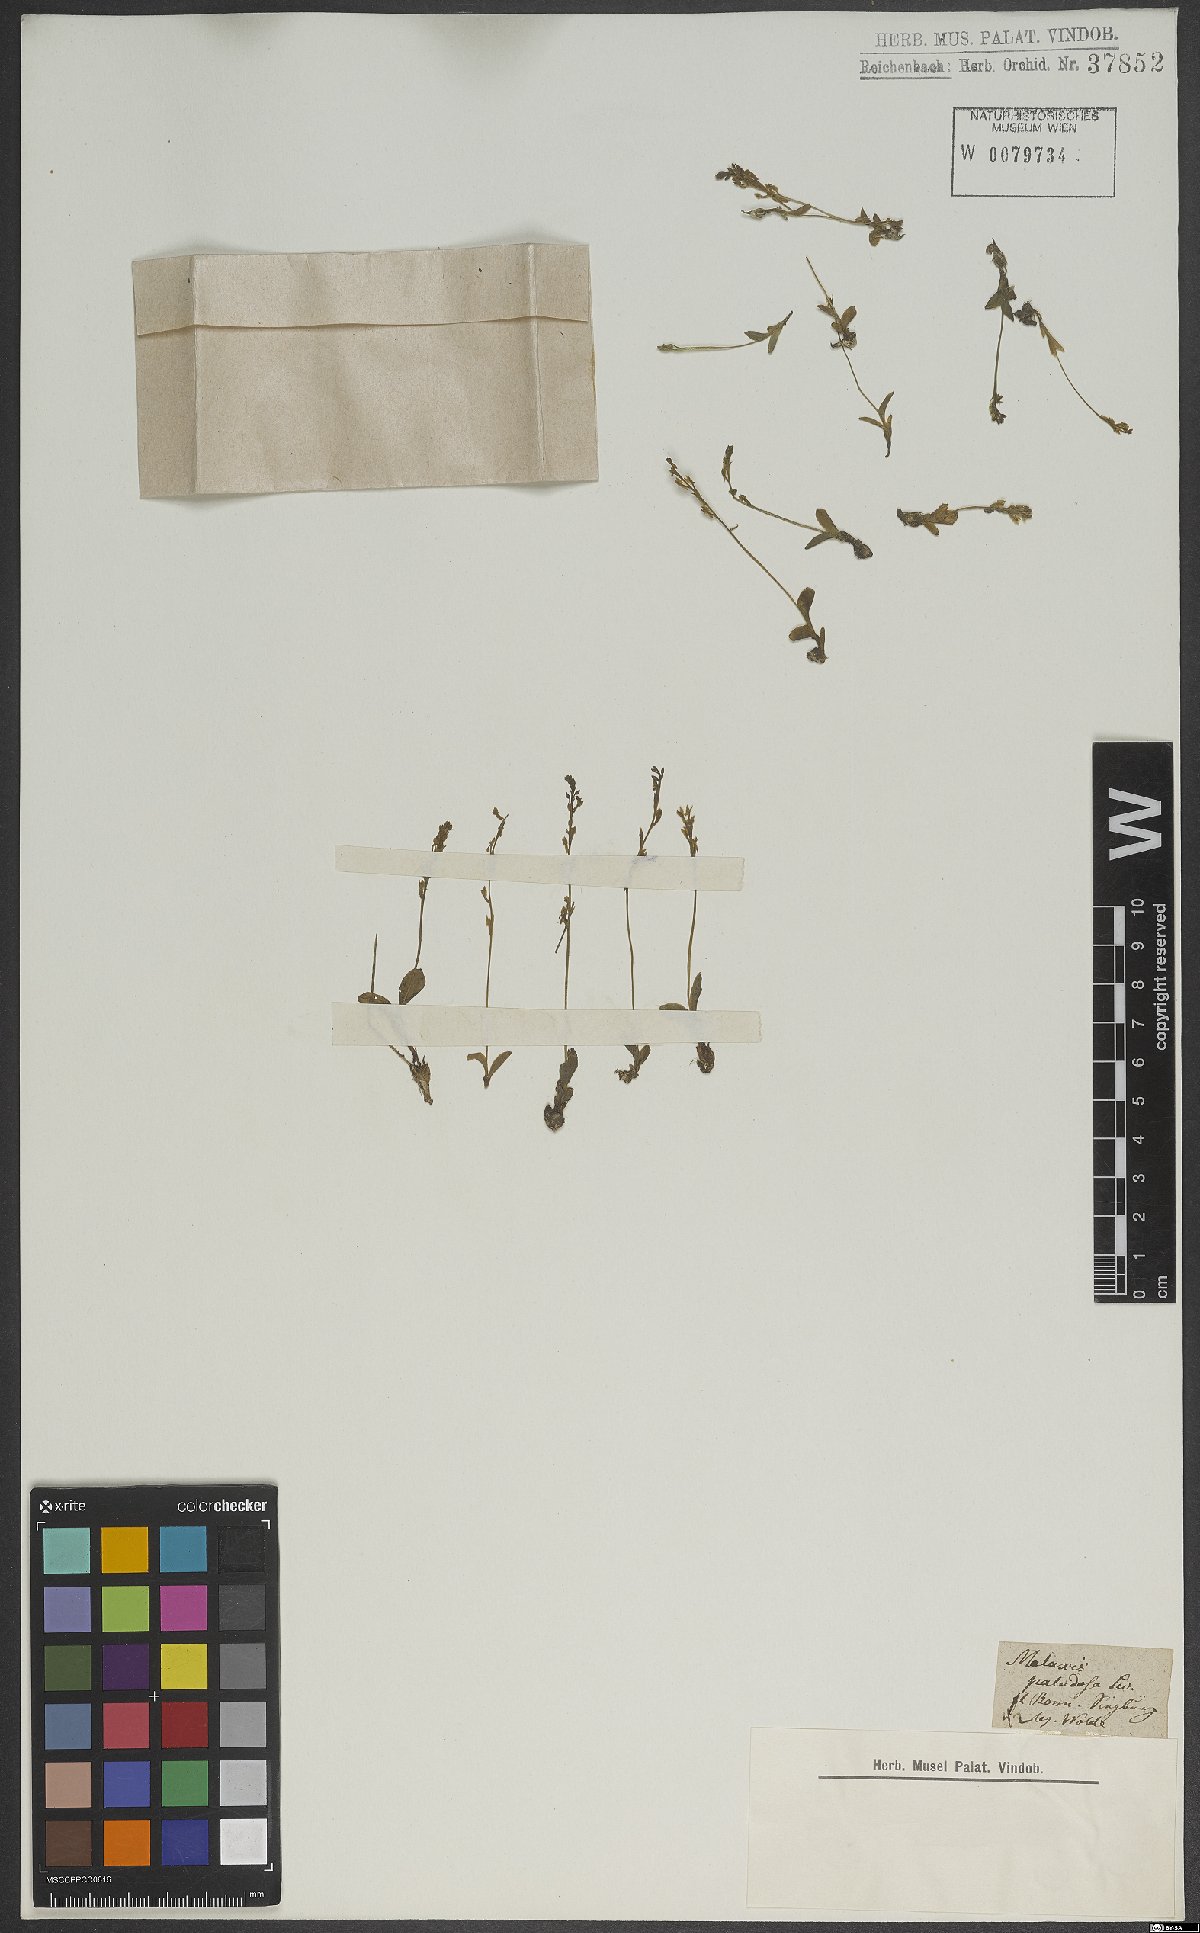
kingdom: Plantae
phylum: Tracheophyta
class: Liliopsida
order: Asparagales
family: Orchidaceae
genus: Hammarbya
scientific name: Hammarbya paludosa
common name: Bog orchid
